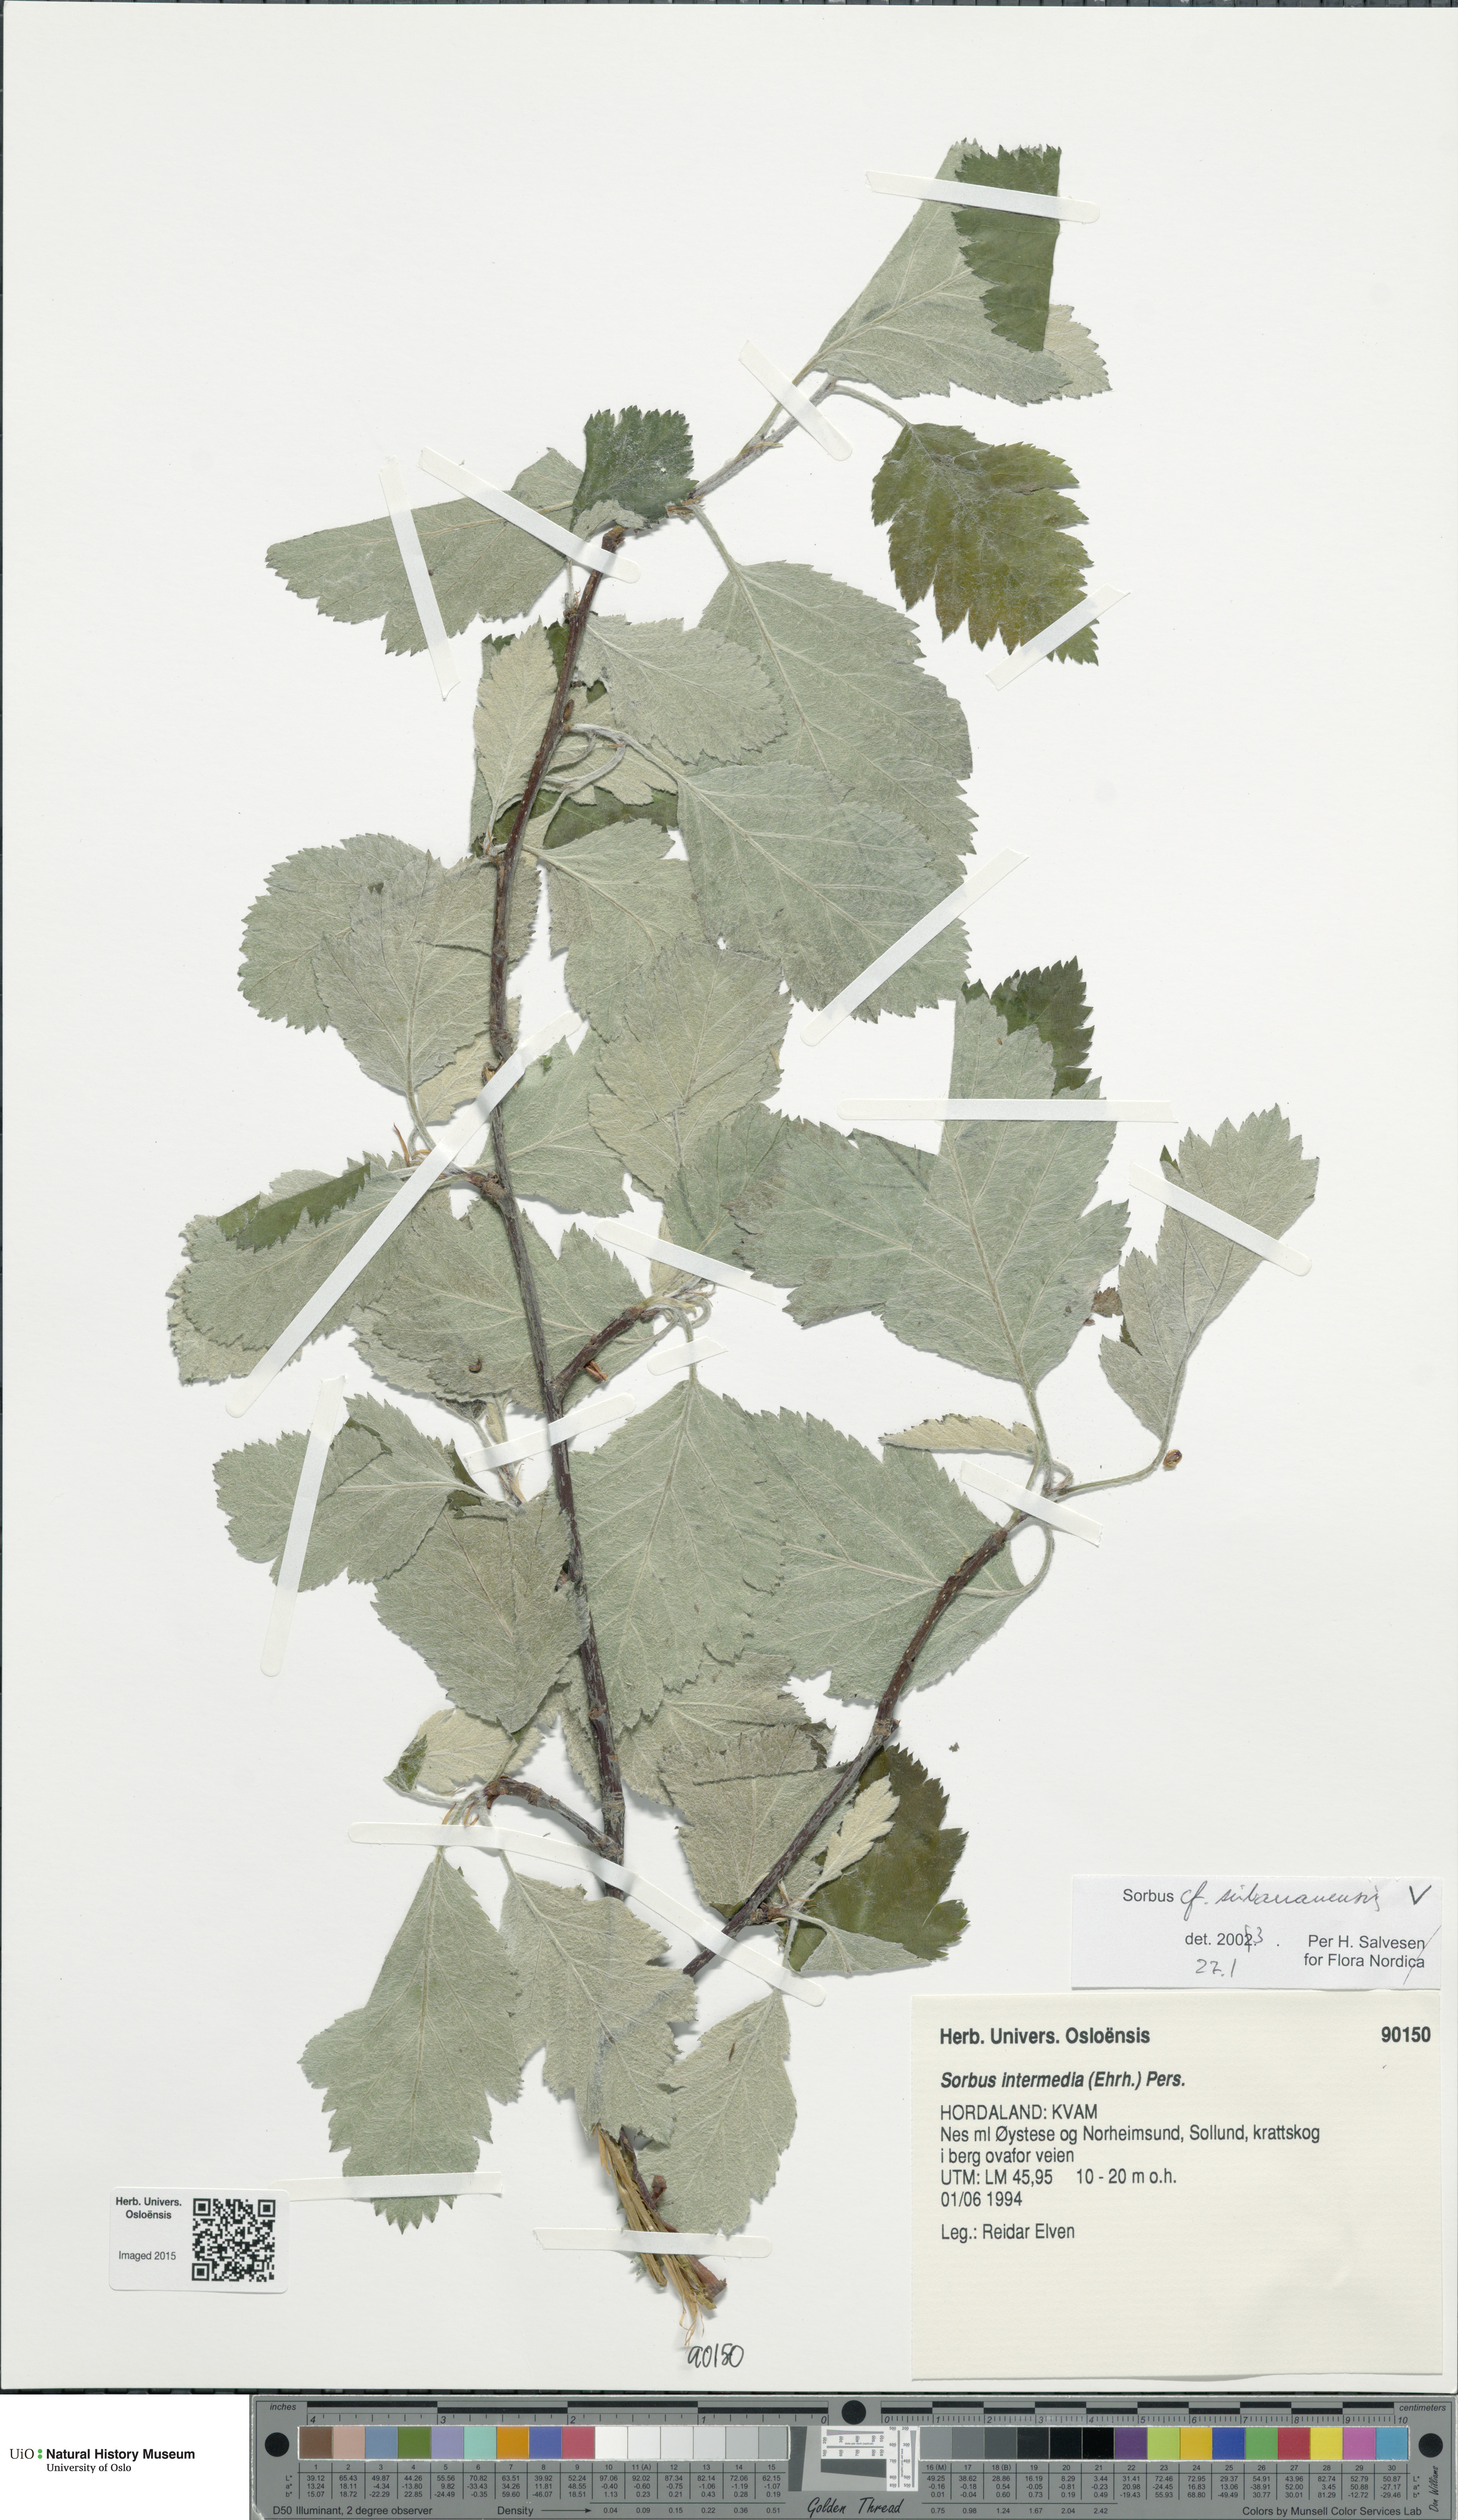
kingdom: Plantae
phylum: Tracheophyta
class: Magnoliopsida
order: Rosales
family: Rosaceae
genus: Hedlundia
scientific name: Hedlundia subarranensis
